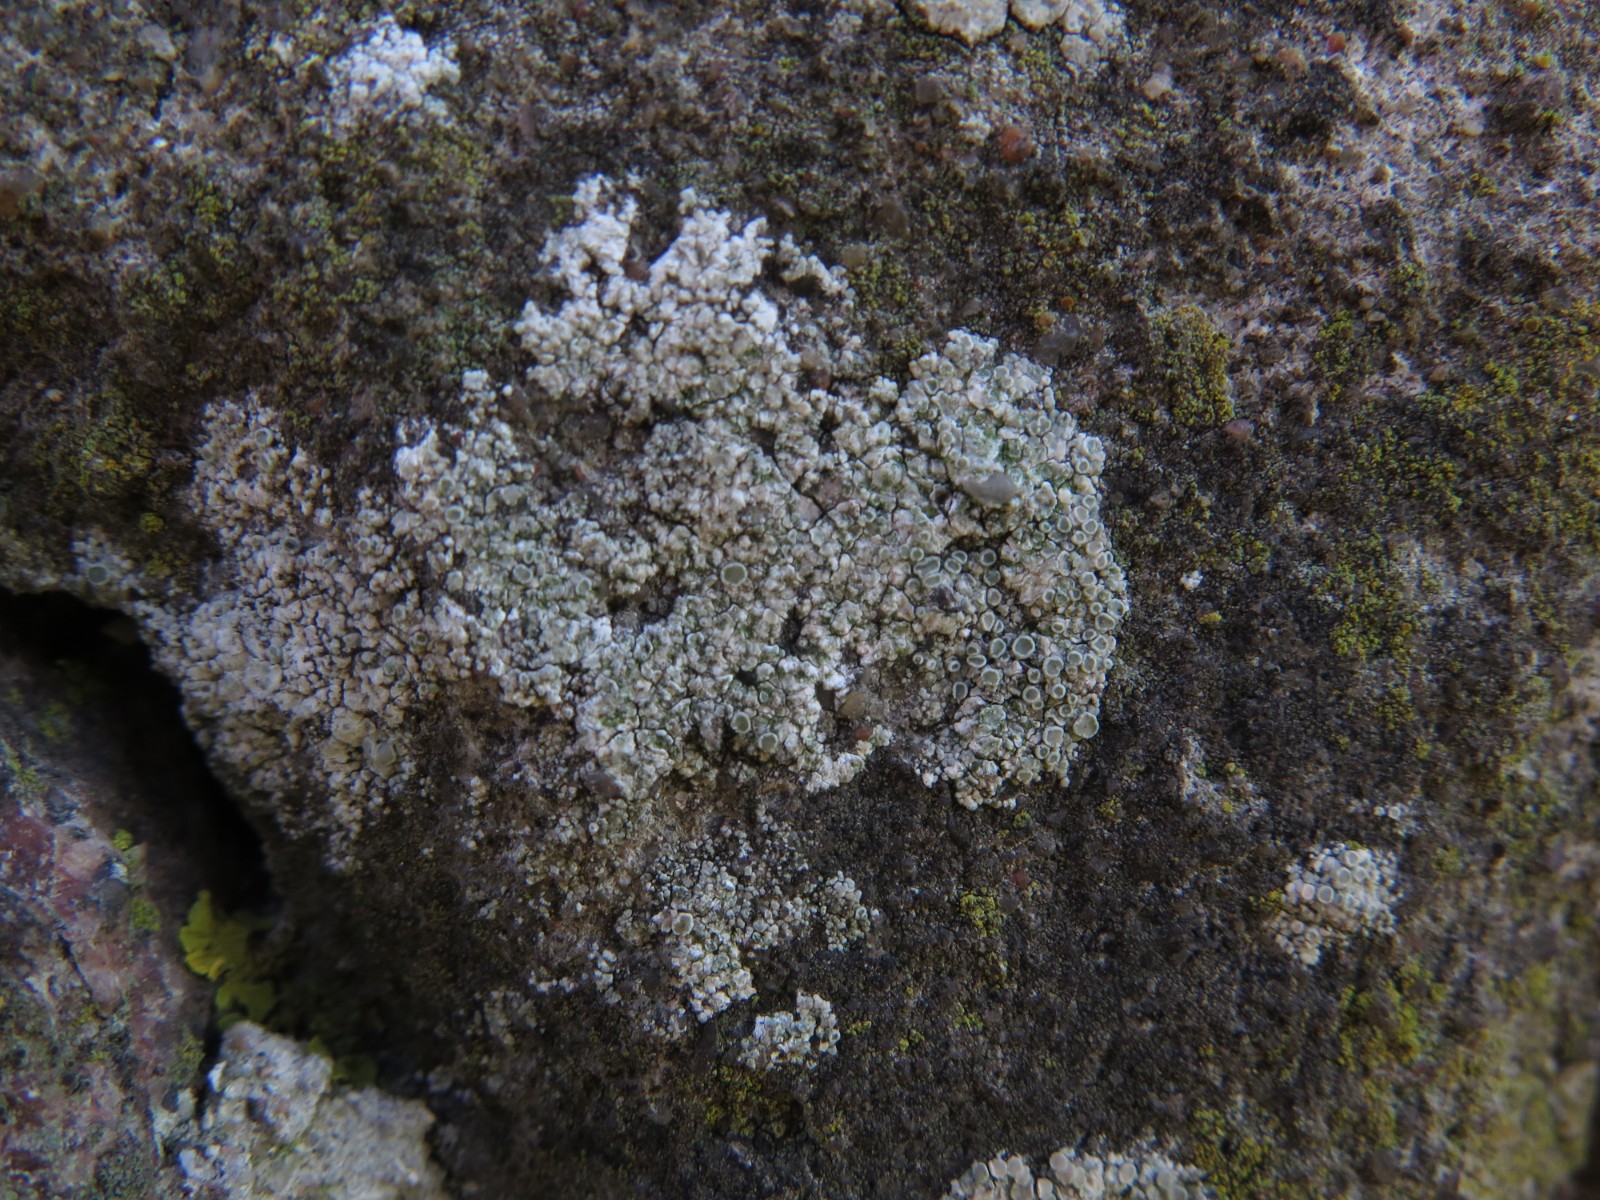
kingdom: Fungi
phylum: Ascomycota
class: Lecanoromycetes
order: Lecanorales
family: Lecanoraceae
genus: Polyozosia
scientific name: Polyozosia albescens
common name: cement-kantskivelav
